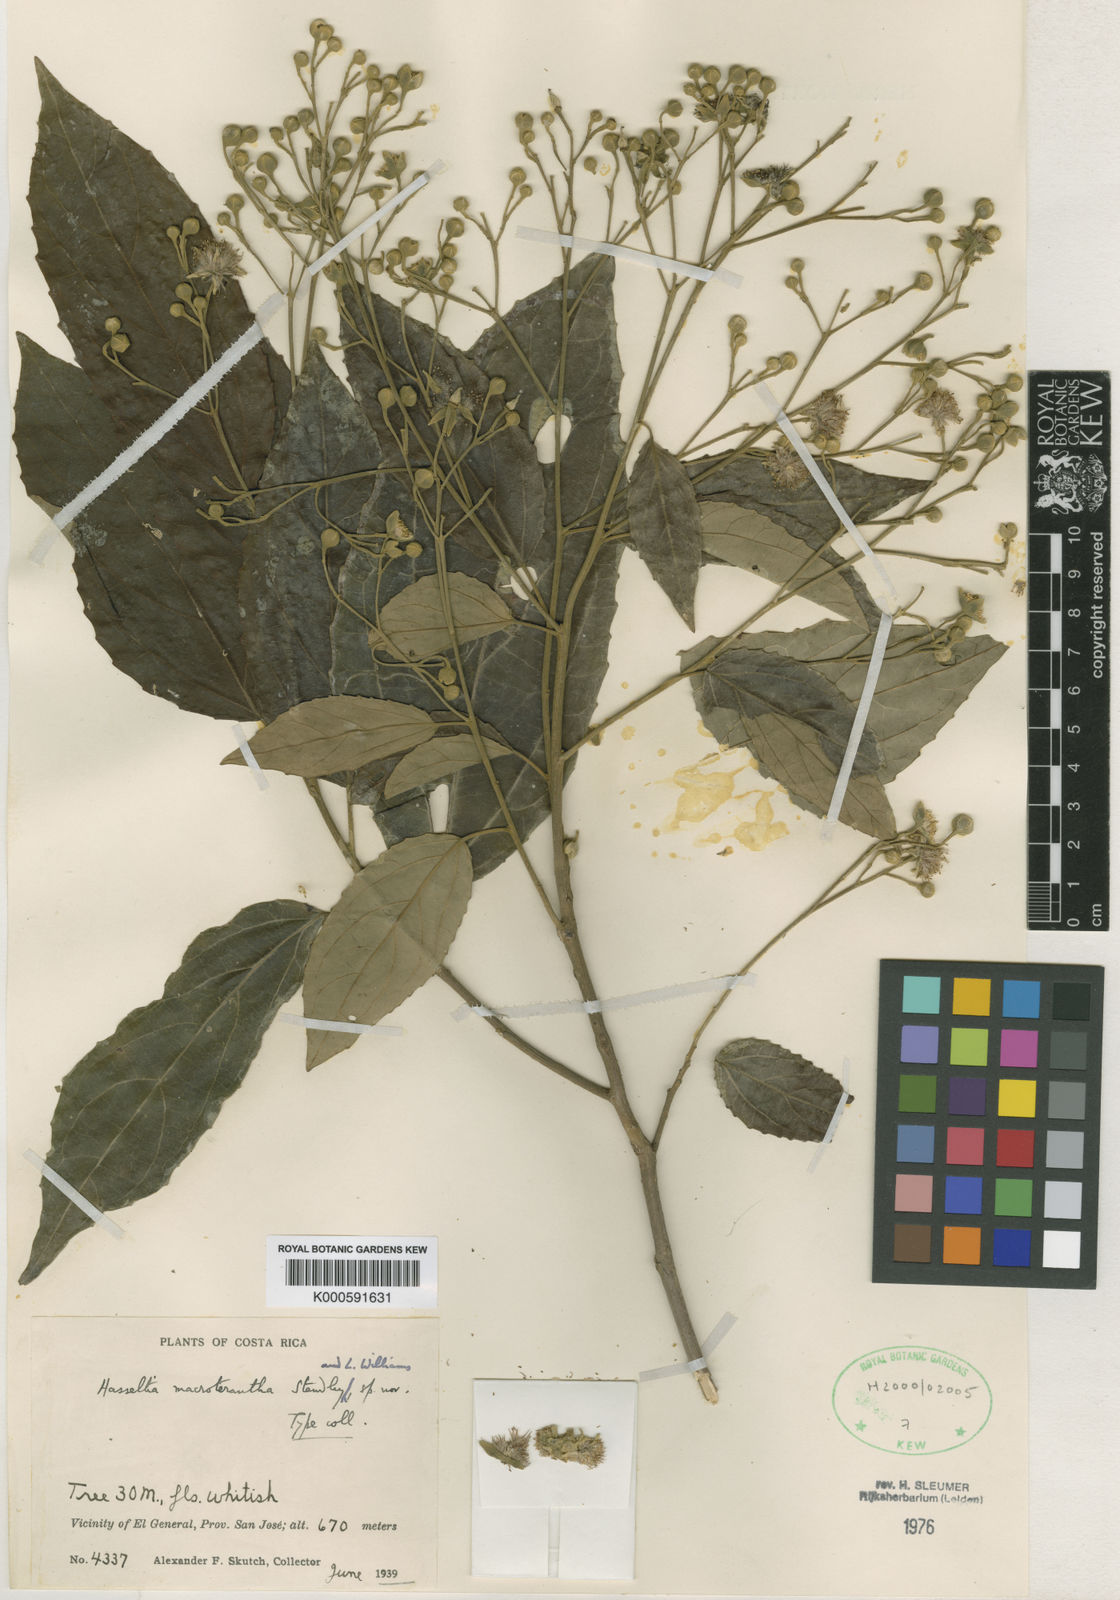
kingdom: Plantae
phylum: Tracheophyta
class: Magnoliopsida
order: Malpighiales
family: Salicaceae
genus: Macrohasseltia
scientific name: Macrohasseltia macroterantha
